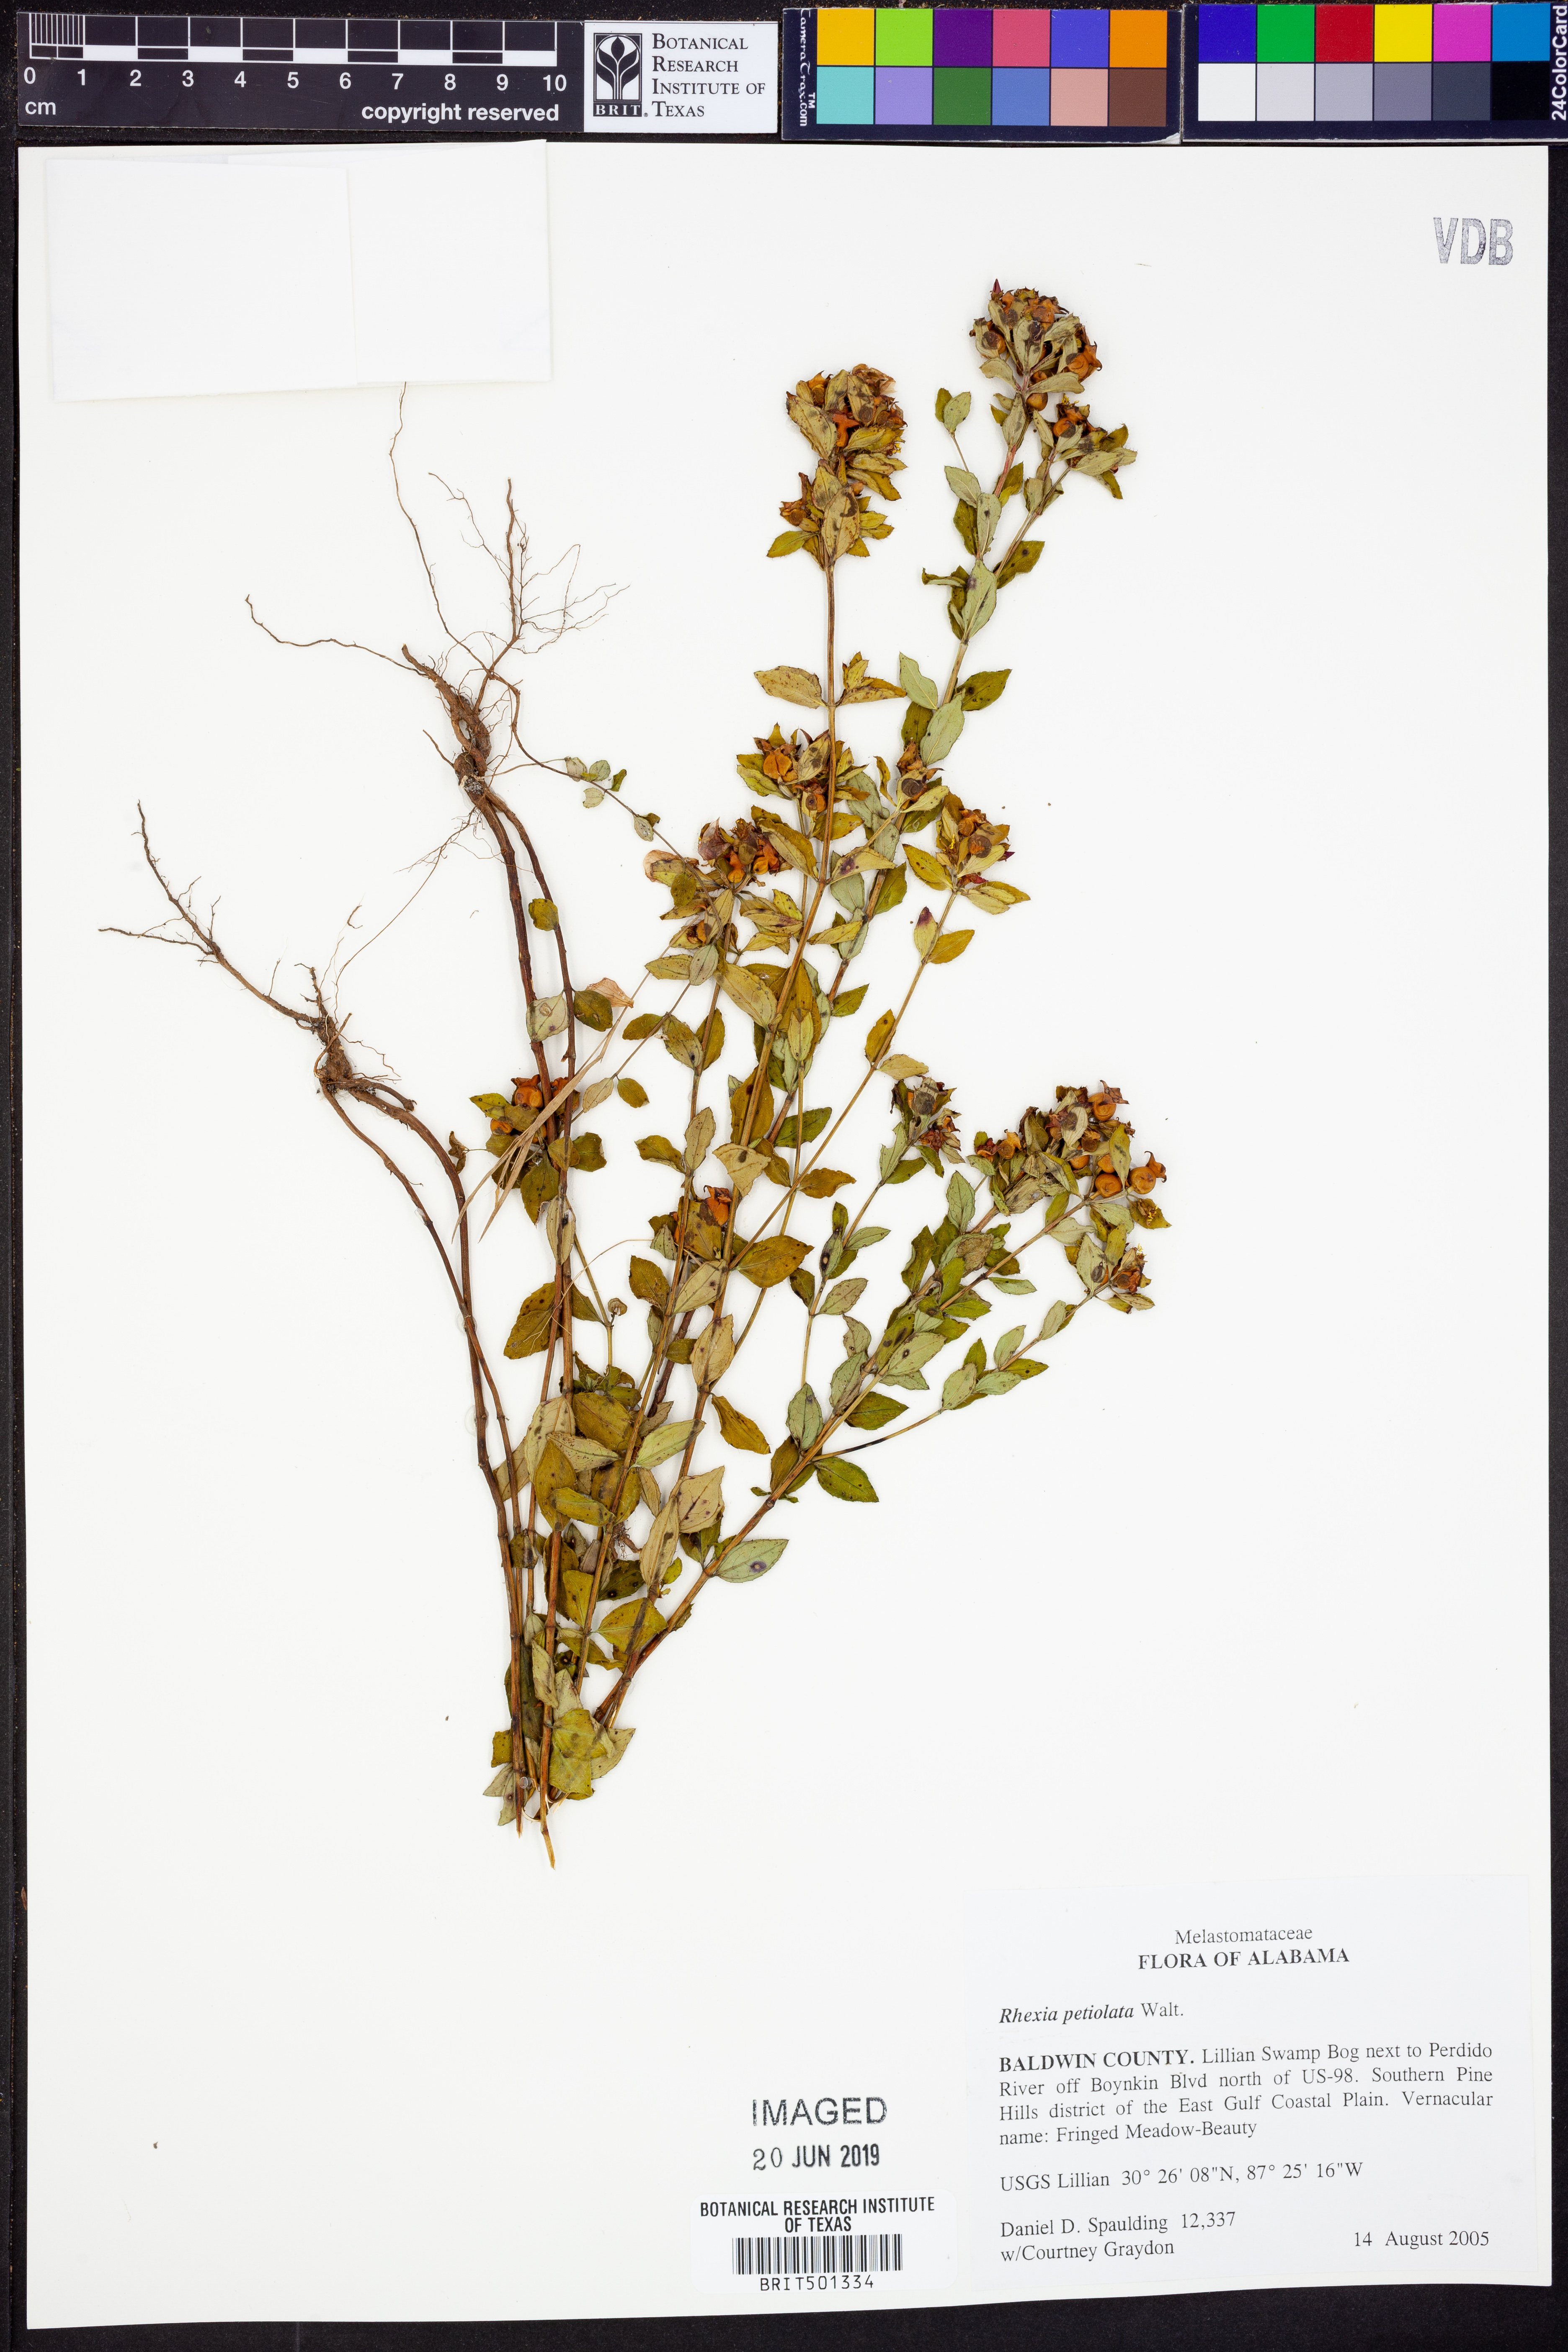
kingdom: Plantae
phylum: Tracheophyta
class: Magnoliopsida
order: Myrtales
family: Melastomataceae
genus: Rhexia
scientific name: Rhexia petiolata
